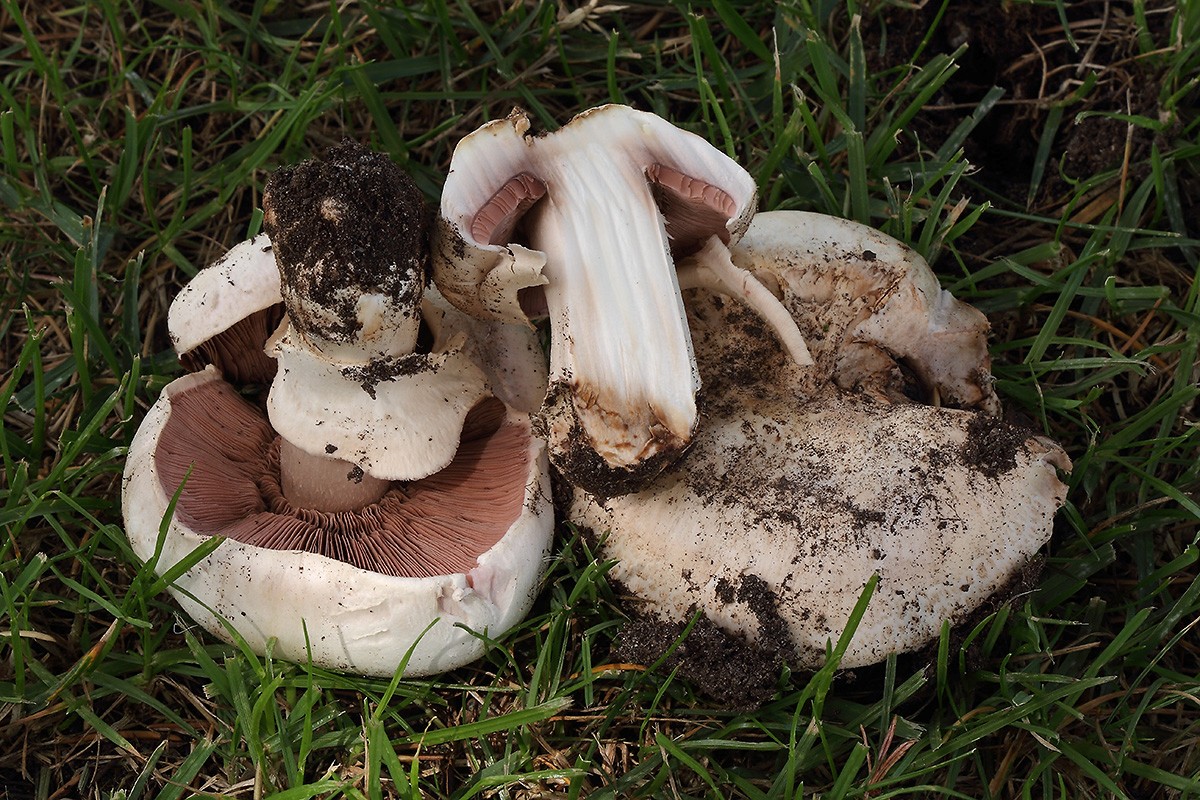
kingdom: Fungi
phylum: Basidiomycota
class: Agaricomycetes
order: Agaricales
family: Agaricaceae
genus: Agaricus
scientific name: Agaricus bitorquis
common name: vej-champignon
